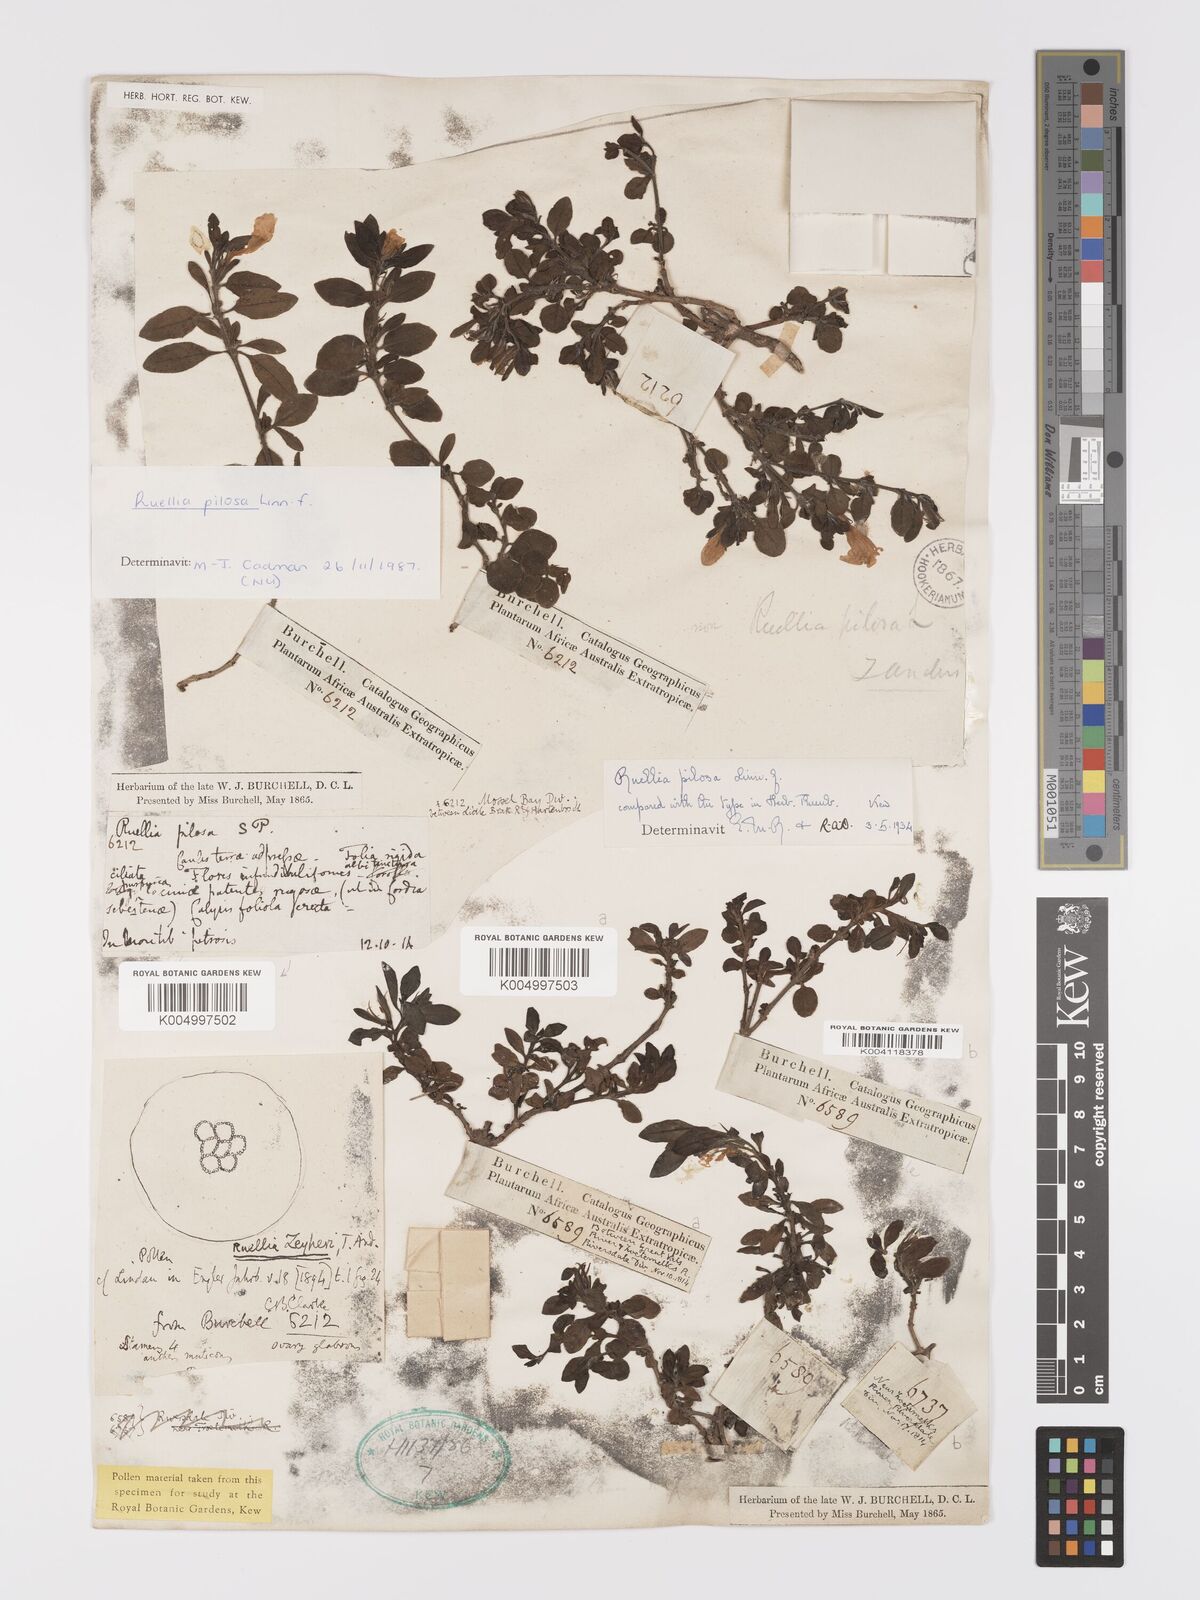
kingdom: Plantae
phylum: Tracheophyta
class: Magnoliopsida
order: Lamiales
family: Acanthaceae
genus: Ruellia
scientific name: Ruellia
